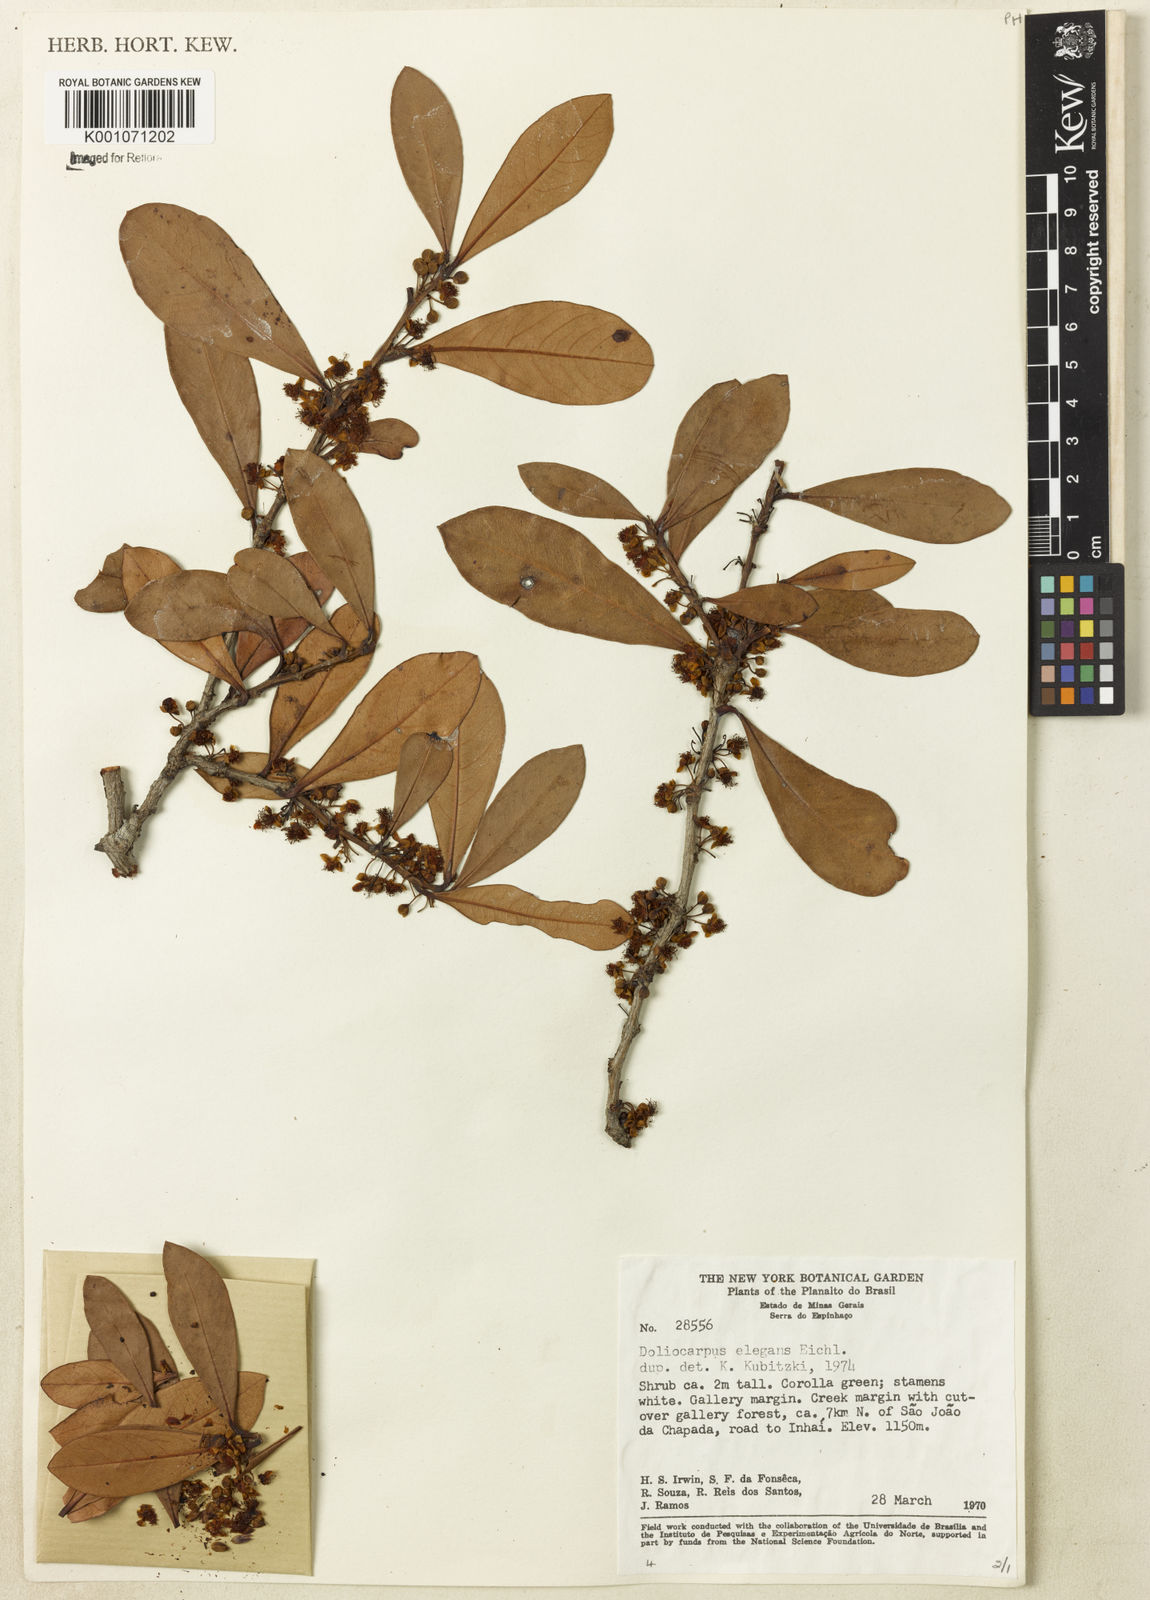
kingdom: Plantae
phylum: Tracheophyta
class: Magnoliopsida
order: Dilleniales
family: Dilleniaceae
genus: Doliocarpus
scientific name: Doliocarpus elegans
